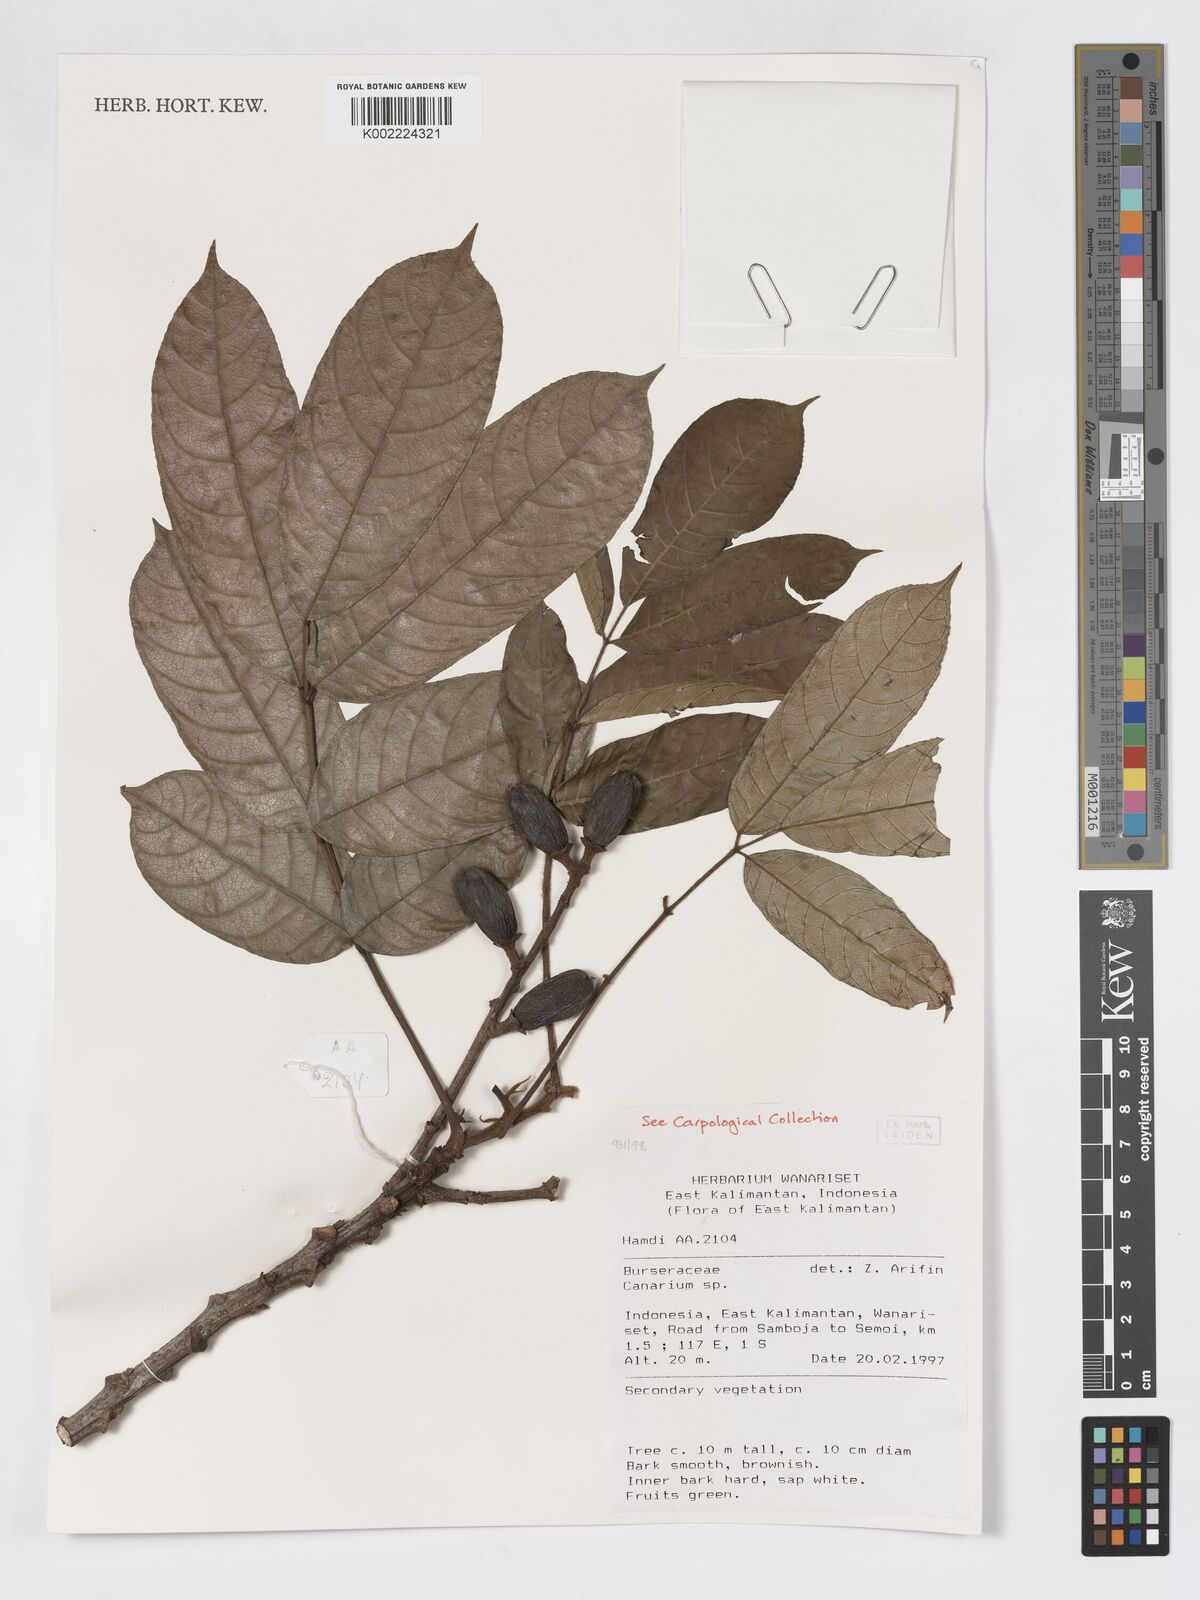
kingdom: Plantae
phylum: Tracheophyta
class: Magnoliopsida
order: Sapindales
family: Burseraceae
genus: Canarium
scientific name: Canarium
